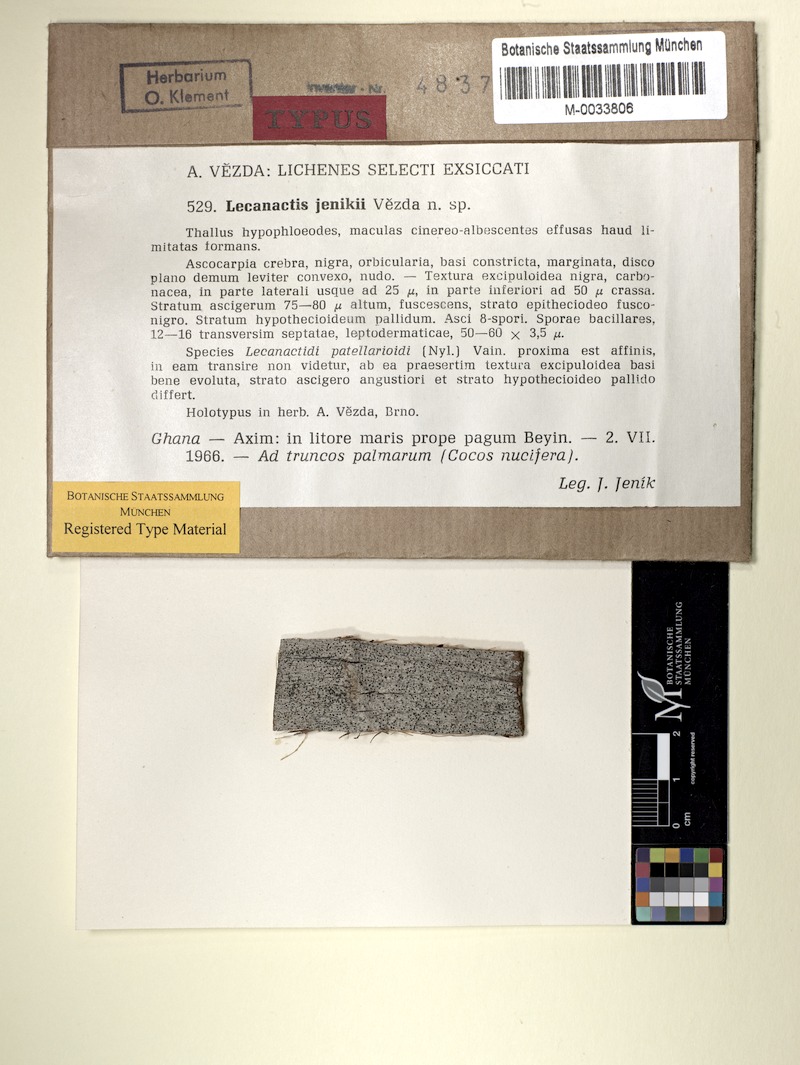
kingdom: Fungi
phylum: Ascomycota
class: Arthoniomycetes
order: Arthoniales
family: Roccellaceae
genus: Bactrospora
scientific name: Bactrospora jenikii
